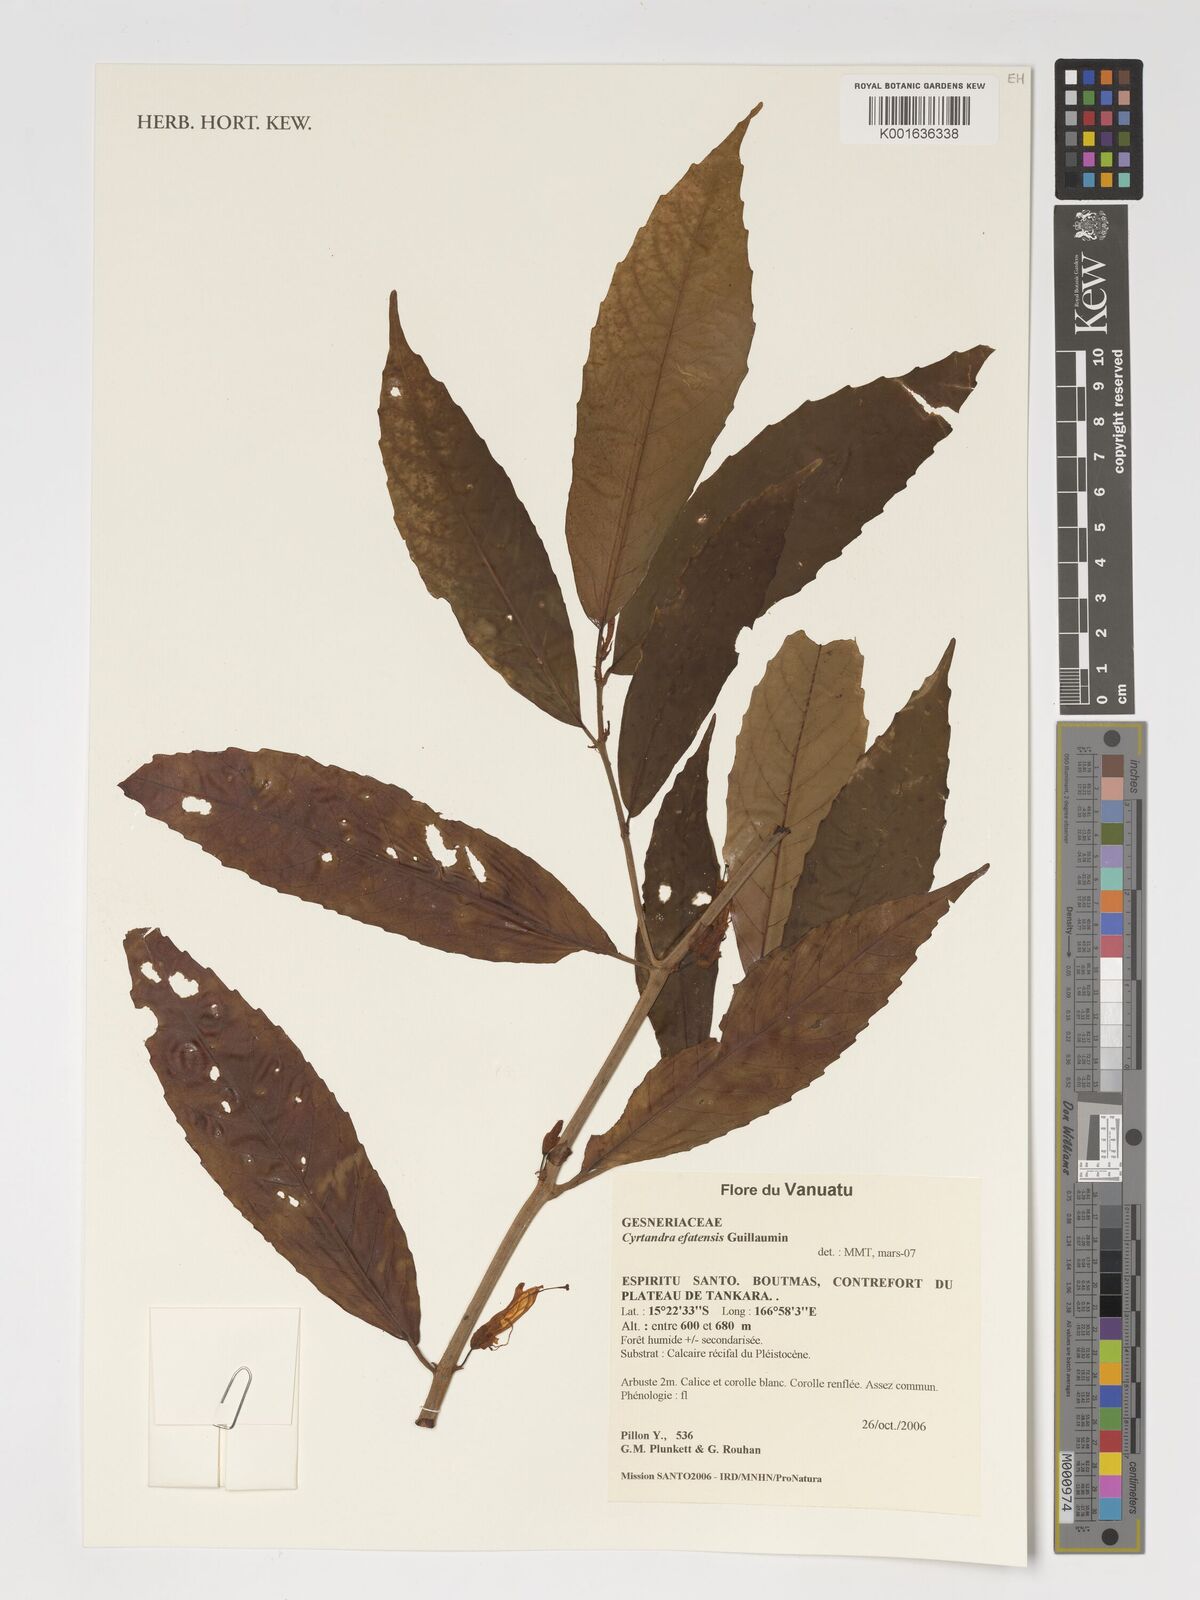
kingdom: Plantae
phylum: Tracheophyta
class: Magnoliopsida
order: Lamiales
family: Gesneriaceae
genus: Cyrtandra
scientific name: Cyrtandra efatensis
